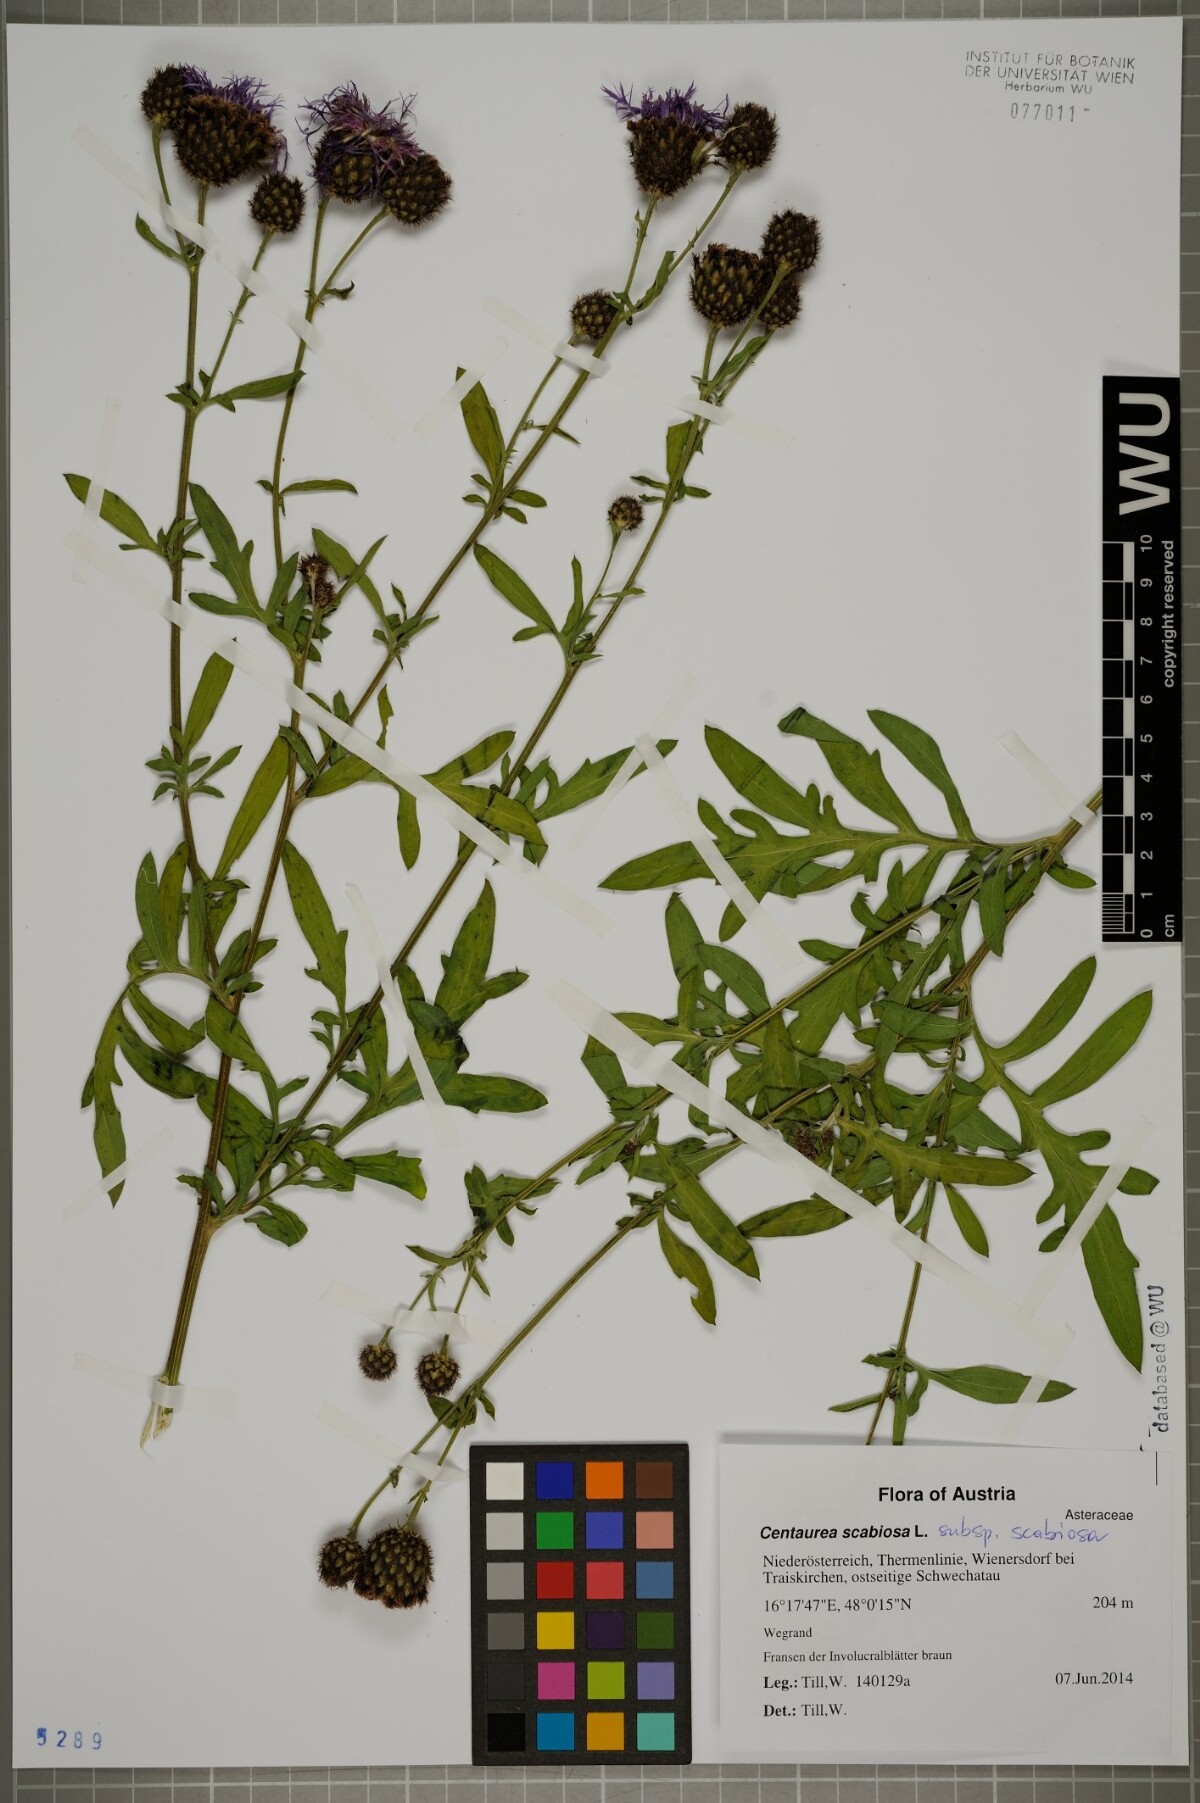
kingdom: Plantae
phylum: Tracheophyta
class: Magnoliopsida
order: Asterales
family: Asteraceae
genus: Centaurea
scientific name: Centaurea scabiosa
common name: Greater knapweed
